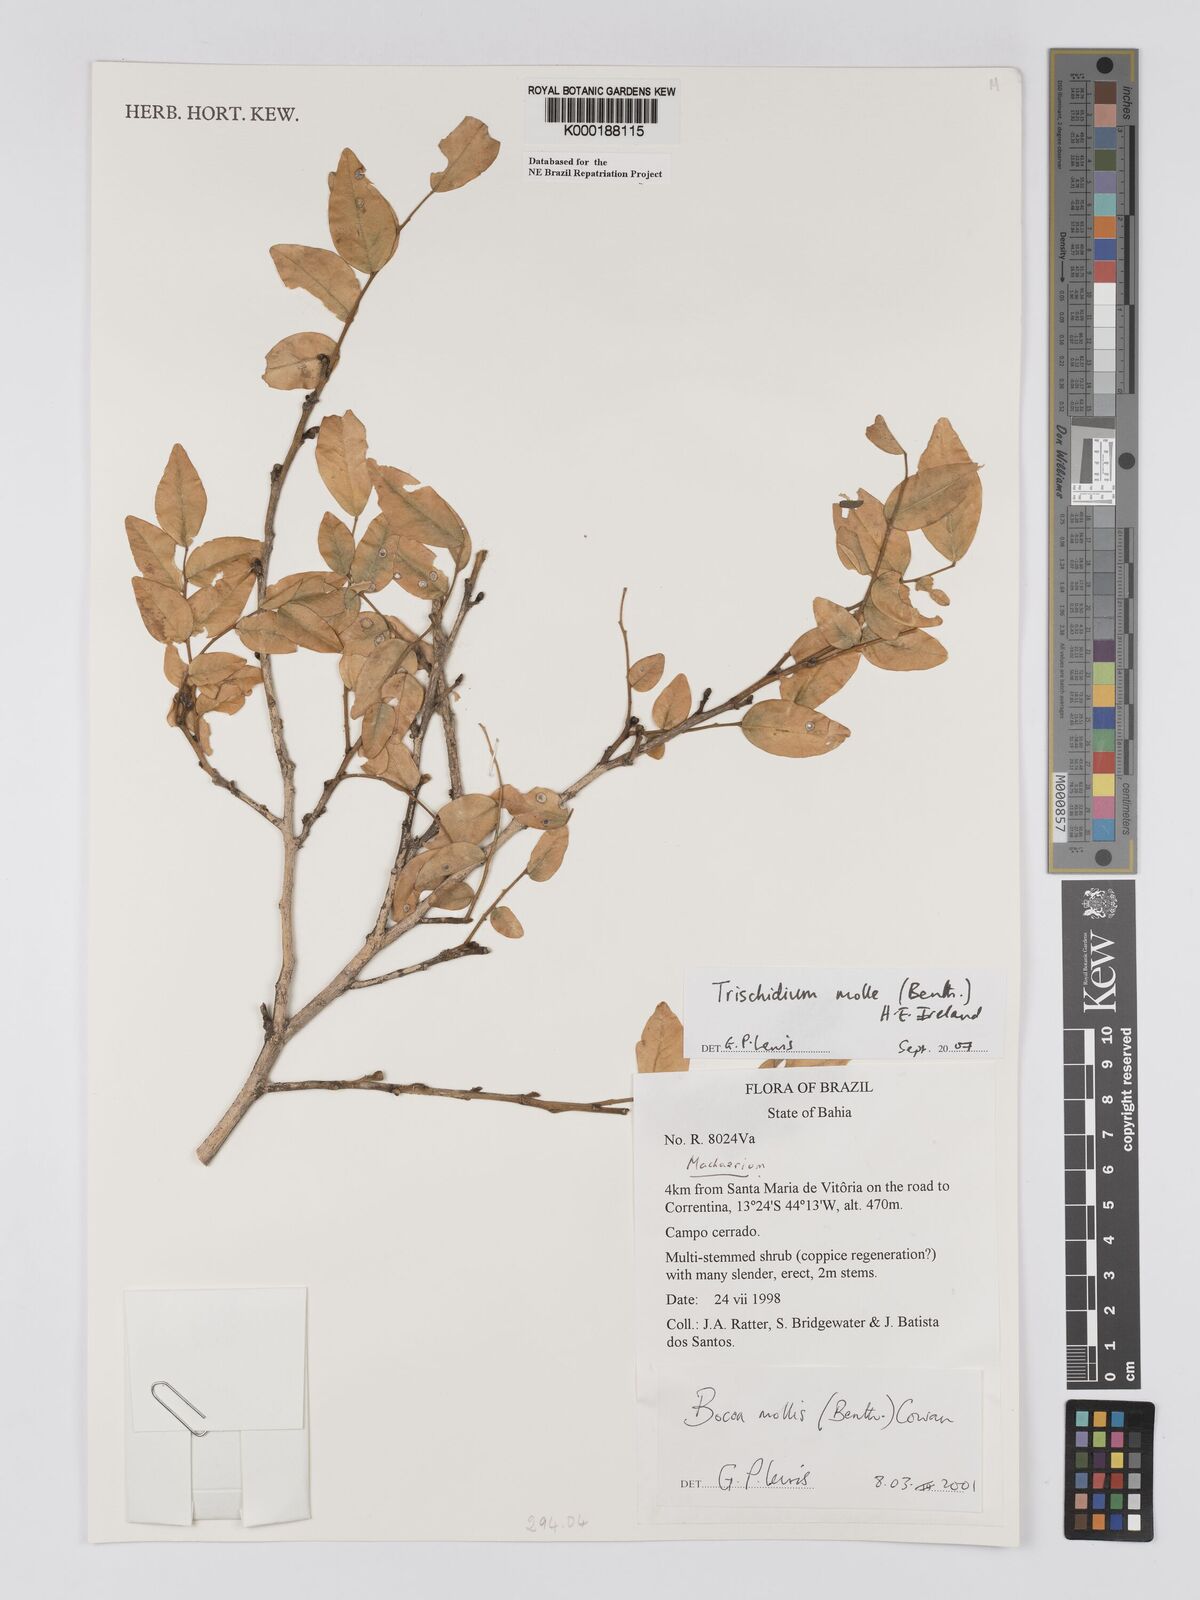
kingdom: Plantae
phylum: Tracheophyta
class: Magnoliopsida
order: Fabales
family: Fabaceae
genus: Trischidium
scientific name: Trischidium
